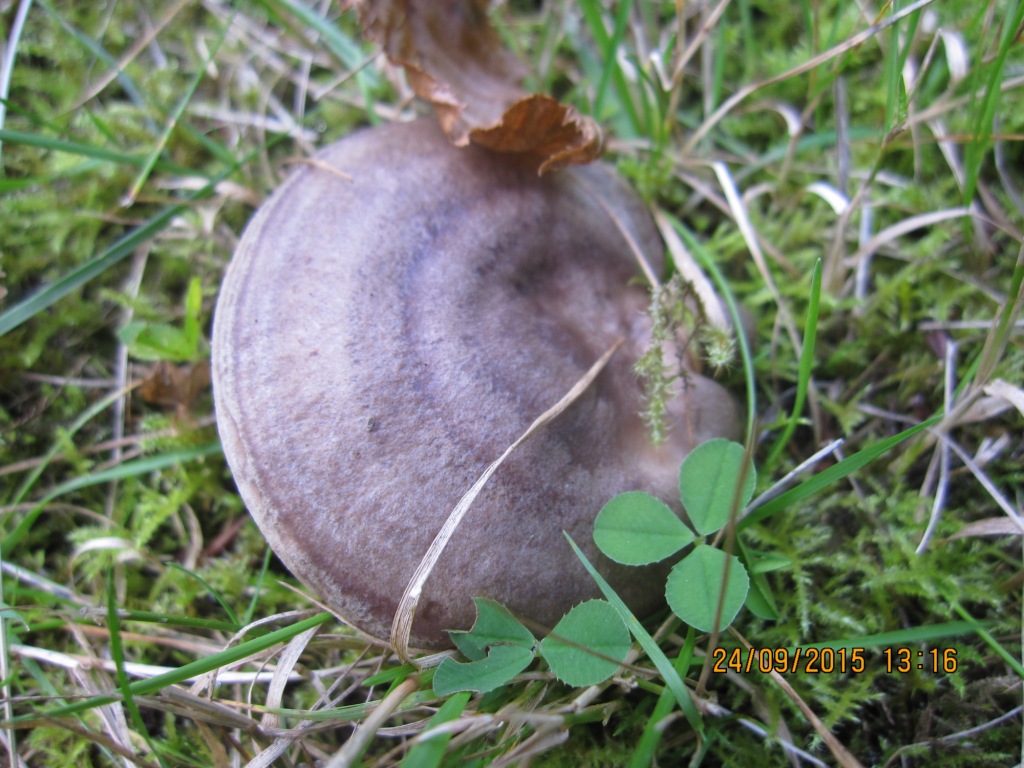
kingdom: Fungi
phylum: Basidiomycota
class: Agaricomycetes
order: Russulales
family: Russulaceae
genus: Lactarius
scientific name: Lactarius circellatus
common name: avnbøg-mælkehat
